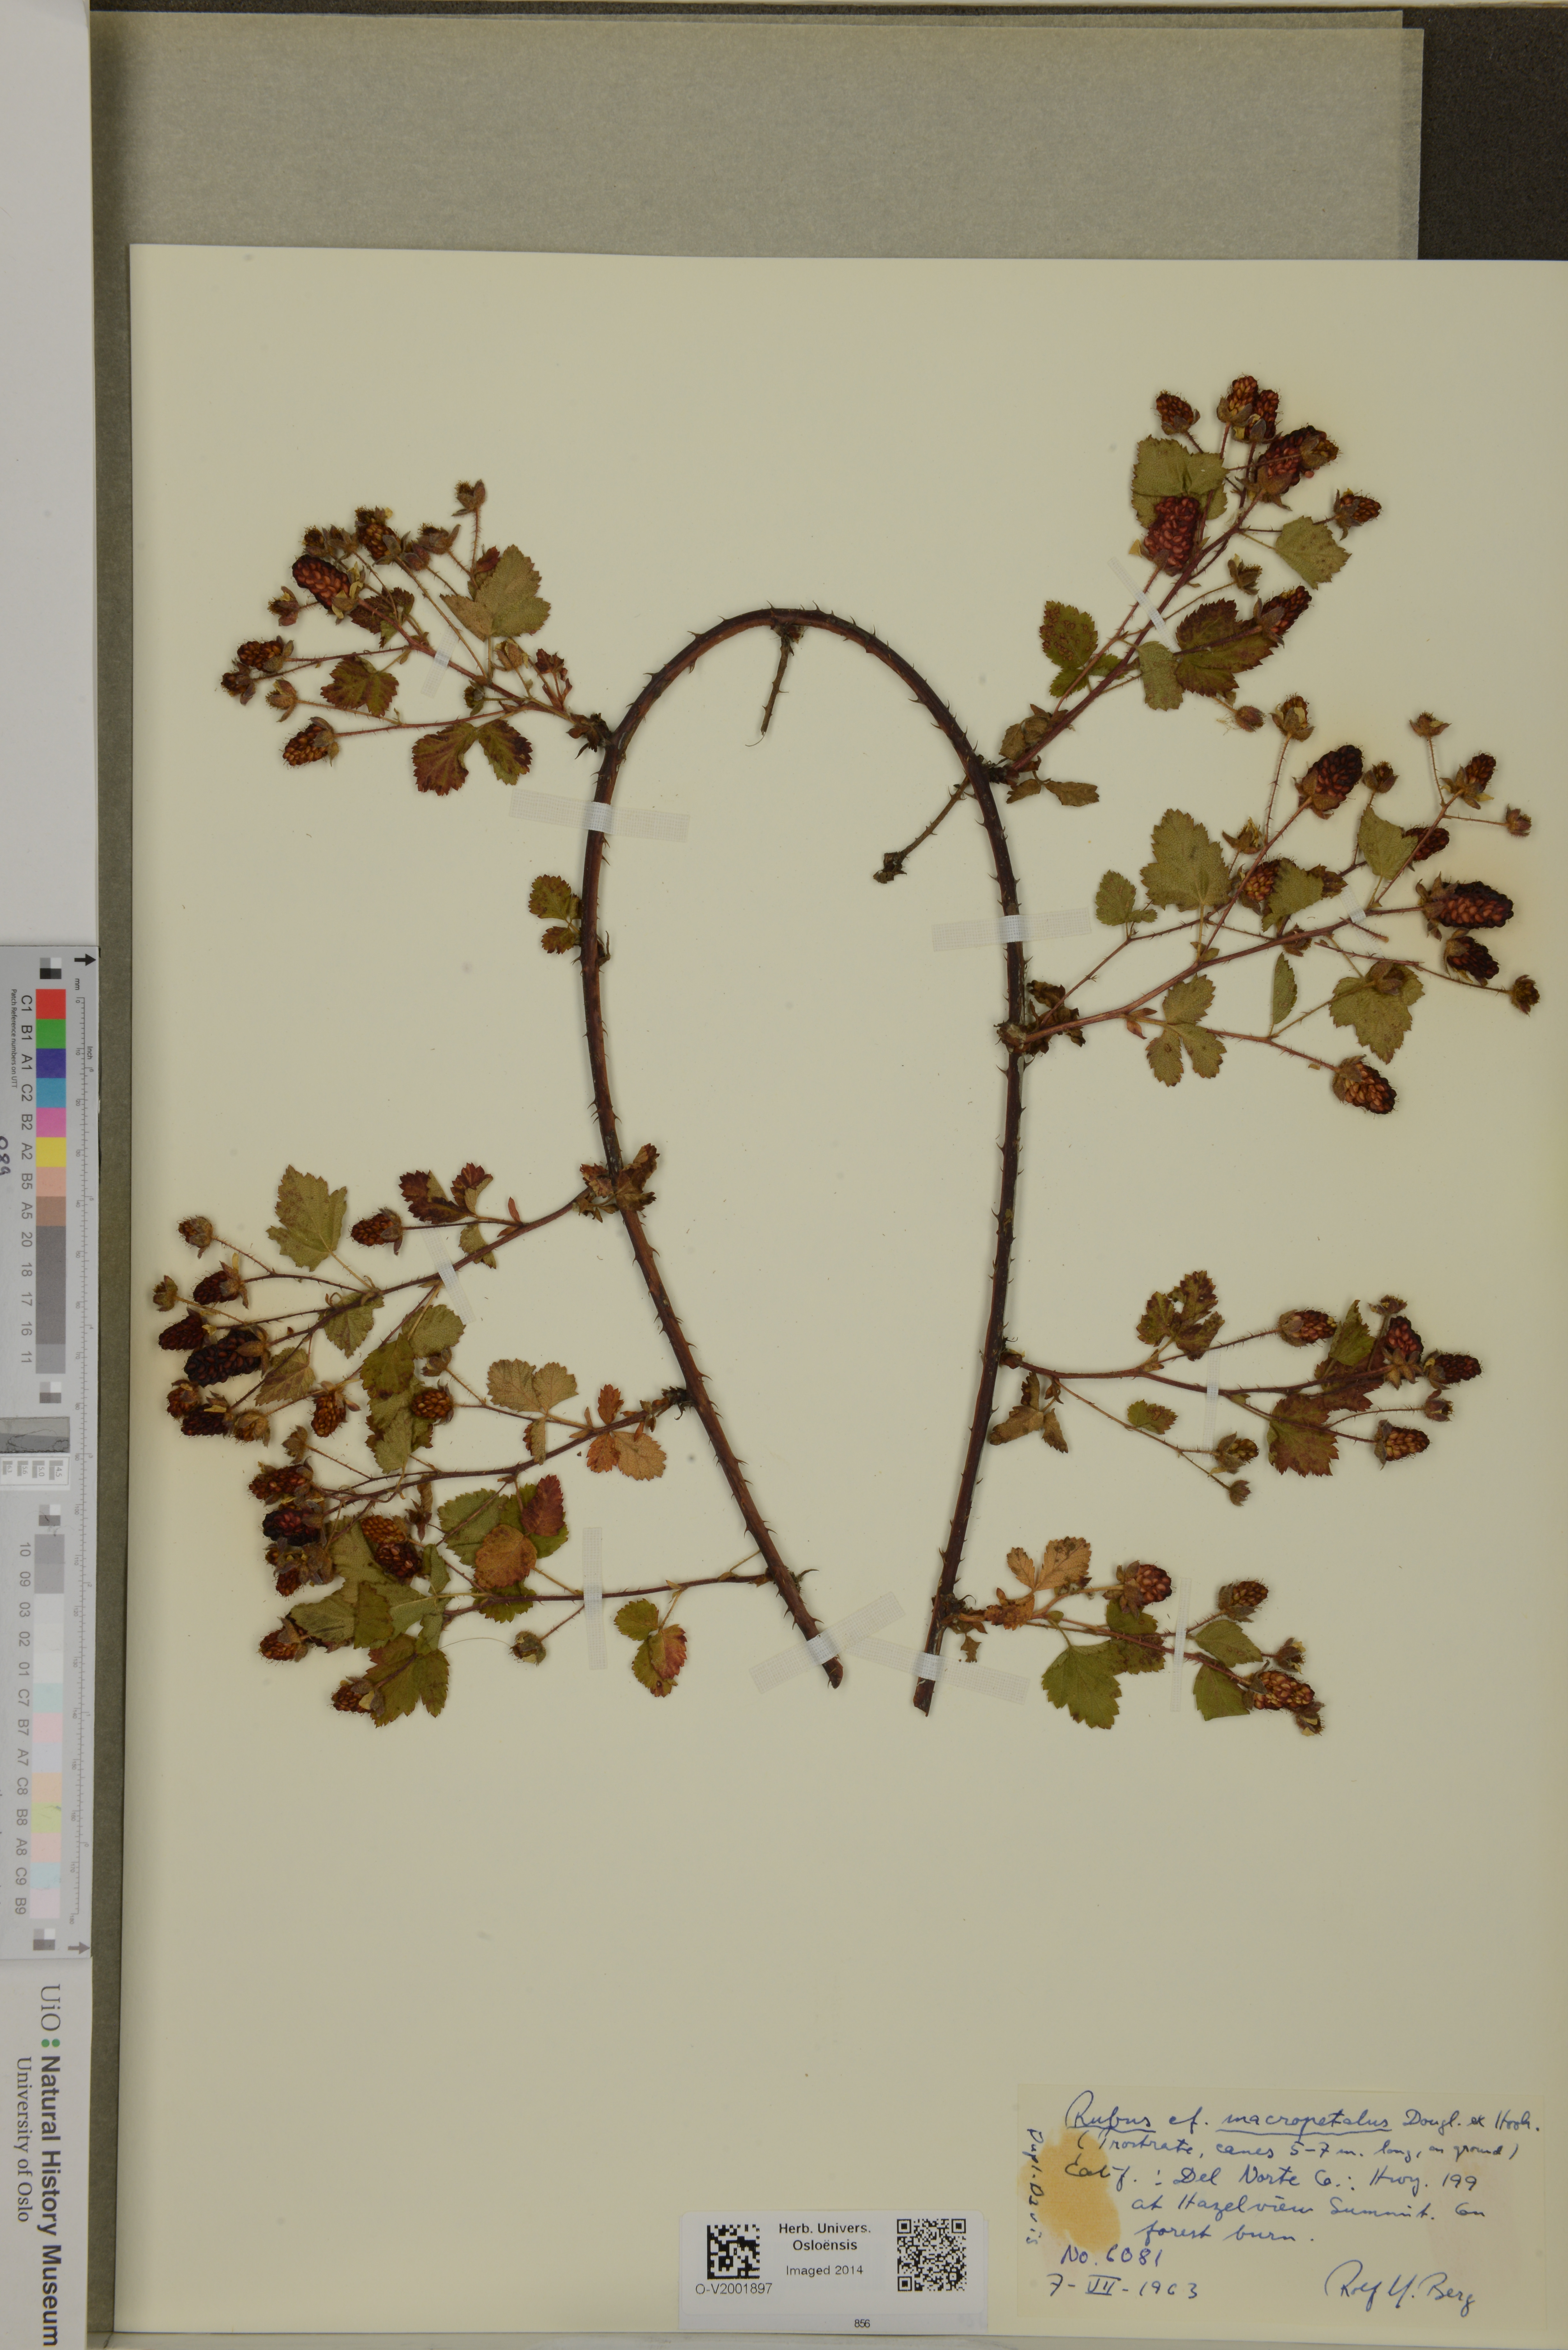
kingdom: Plantae
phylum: Tracheophyta
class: Magnoliopsida
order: Rosales
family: Rosaceae
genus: Rubus
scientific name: Rubus
